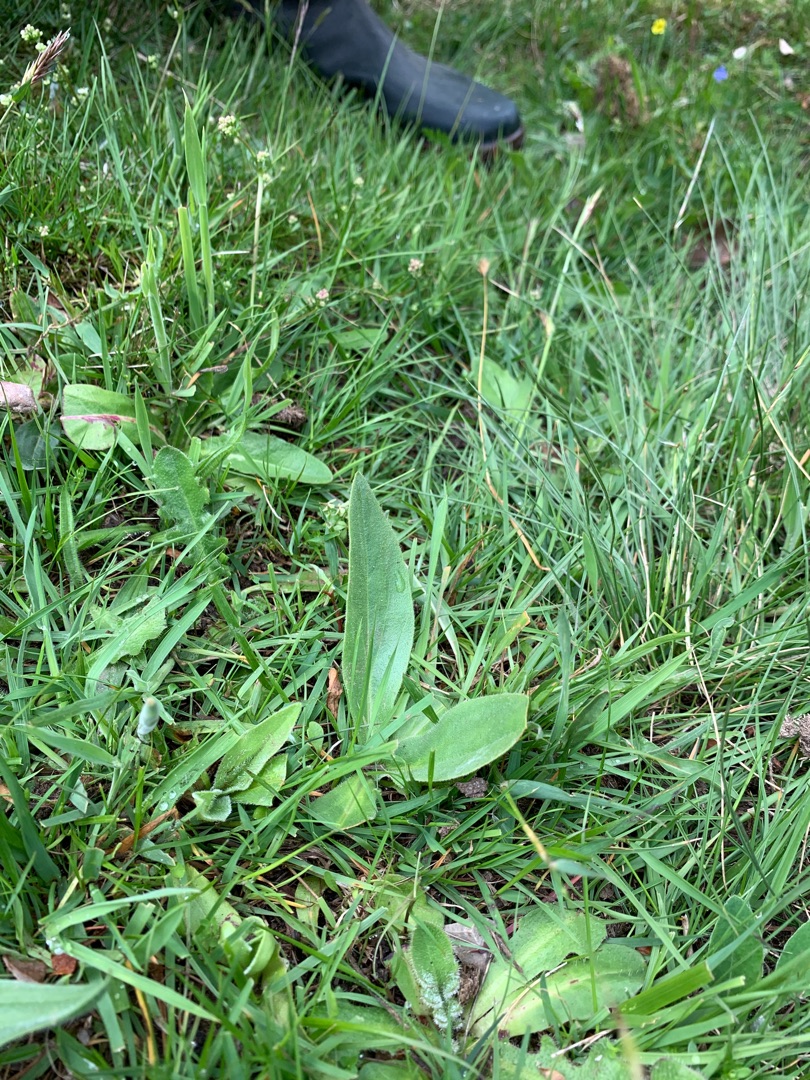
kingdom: Plantae
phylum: Tracheophyta
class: Magnoliopsida
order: Asterales
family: Asteraceae
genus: Arnica
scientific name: Arnica montana
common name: Guldblomme
